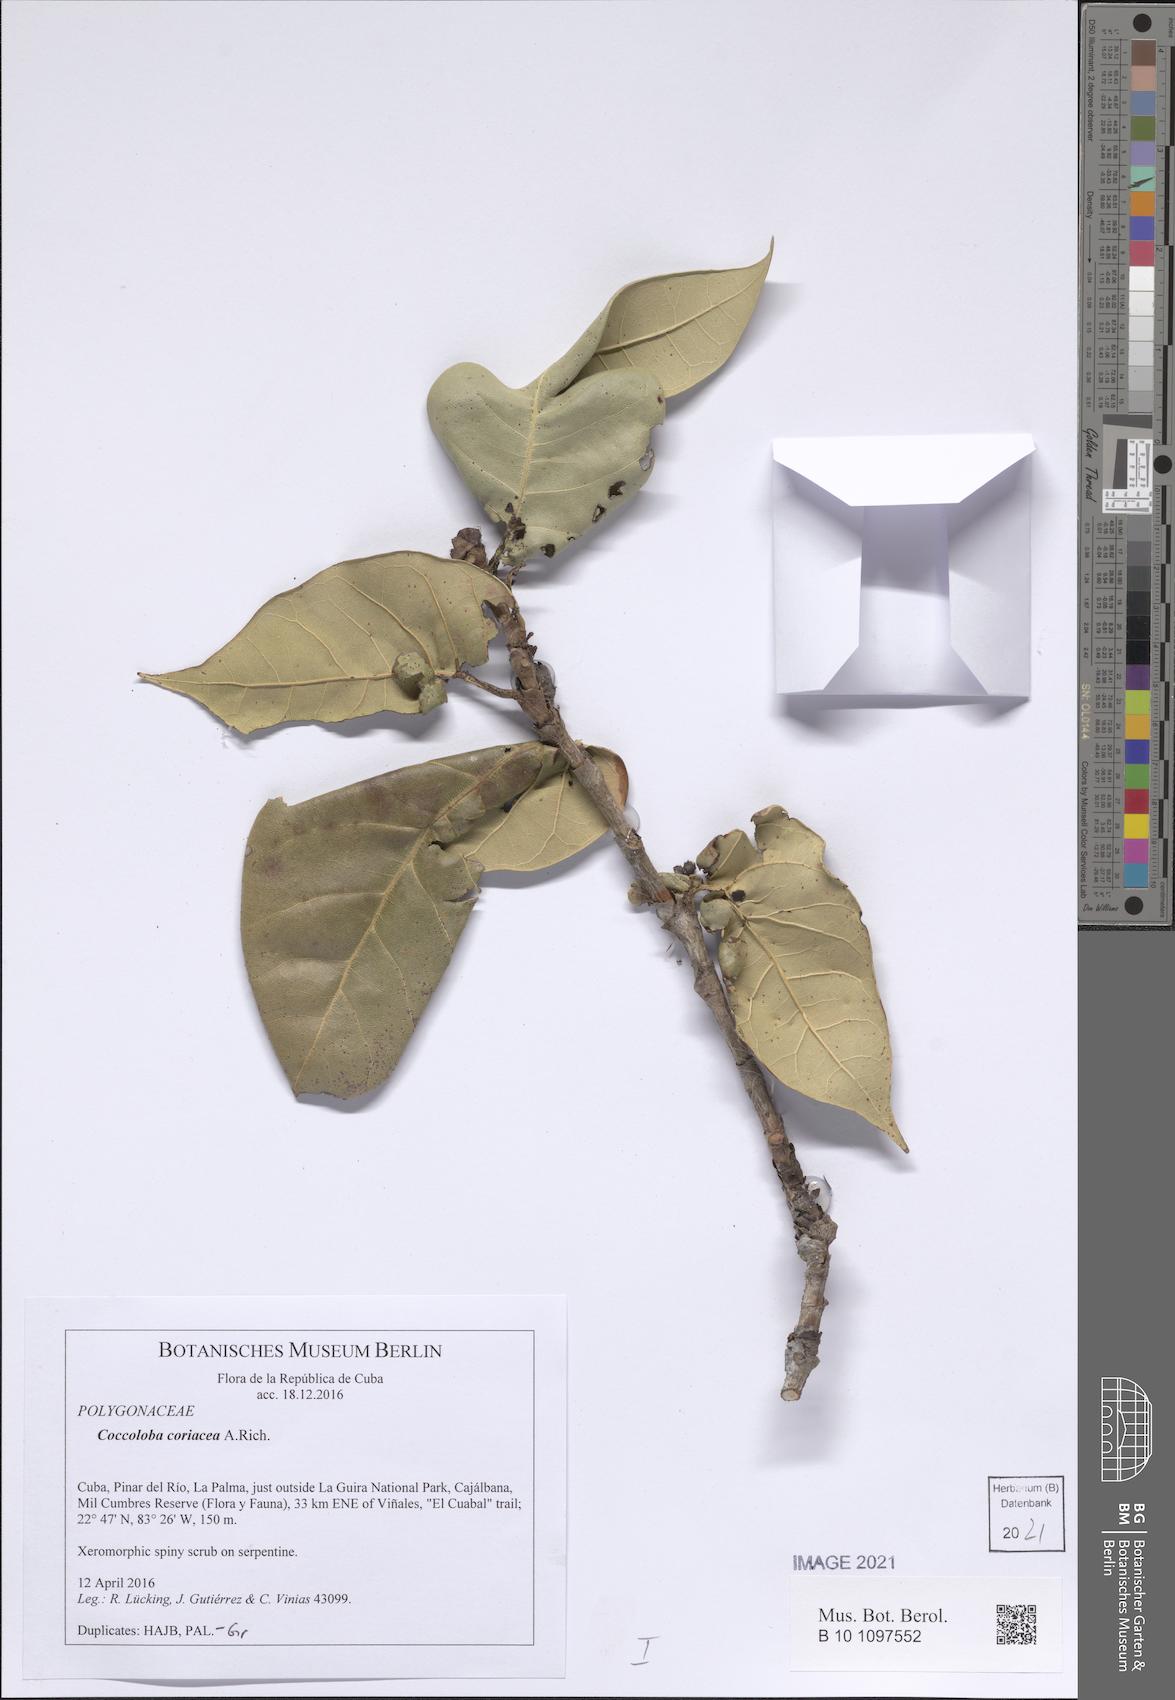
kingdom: Plantae
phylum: Tracheophyta
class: Magnoliopsida
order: Caryophyllales
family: Polygonaceae
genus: Coccoloba
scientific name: Coccoloba coriacea
